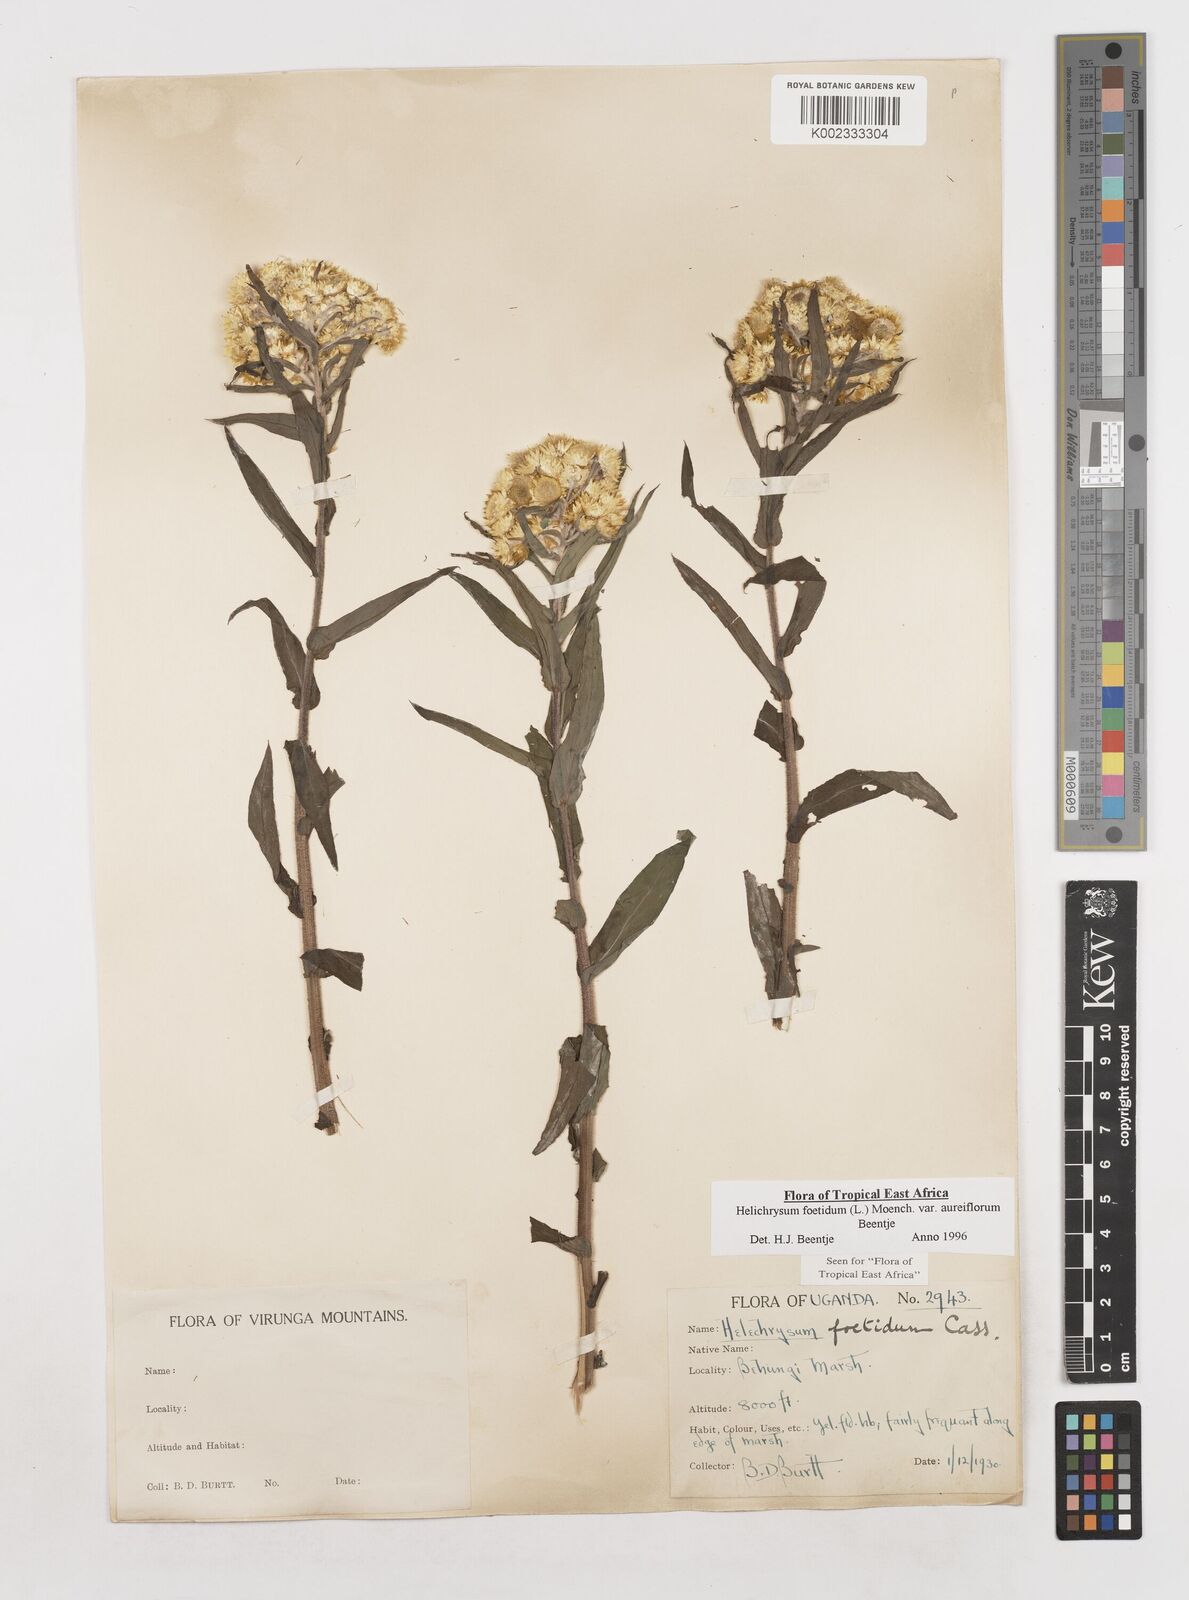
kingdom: Plantae
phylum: Tracheophyta
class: Magnoliopsida
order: Asterales
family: Asteraceae
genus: Helichrysum
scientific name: Helichrysum foetidum
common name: Stinking everlasting
